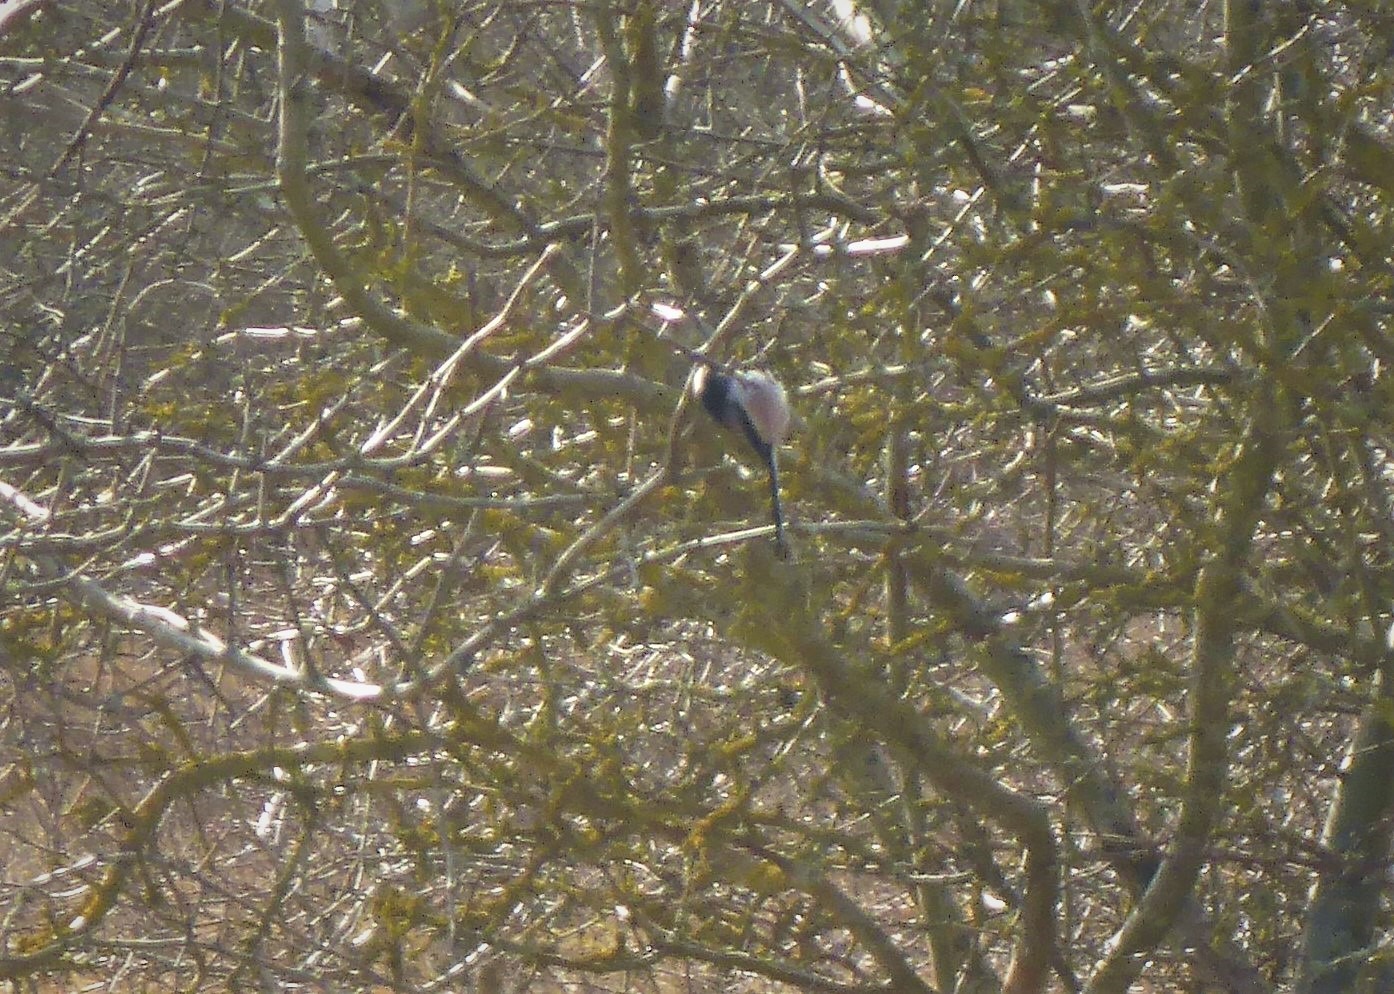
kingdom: Animalia
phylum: Chordata
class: Aves
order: Passeriformes
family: Aegithalidae
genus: Aegithalos
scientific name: Aegithalos caudatus
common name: Halemejse
